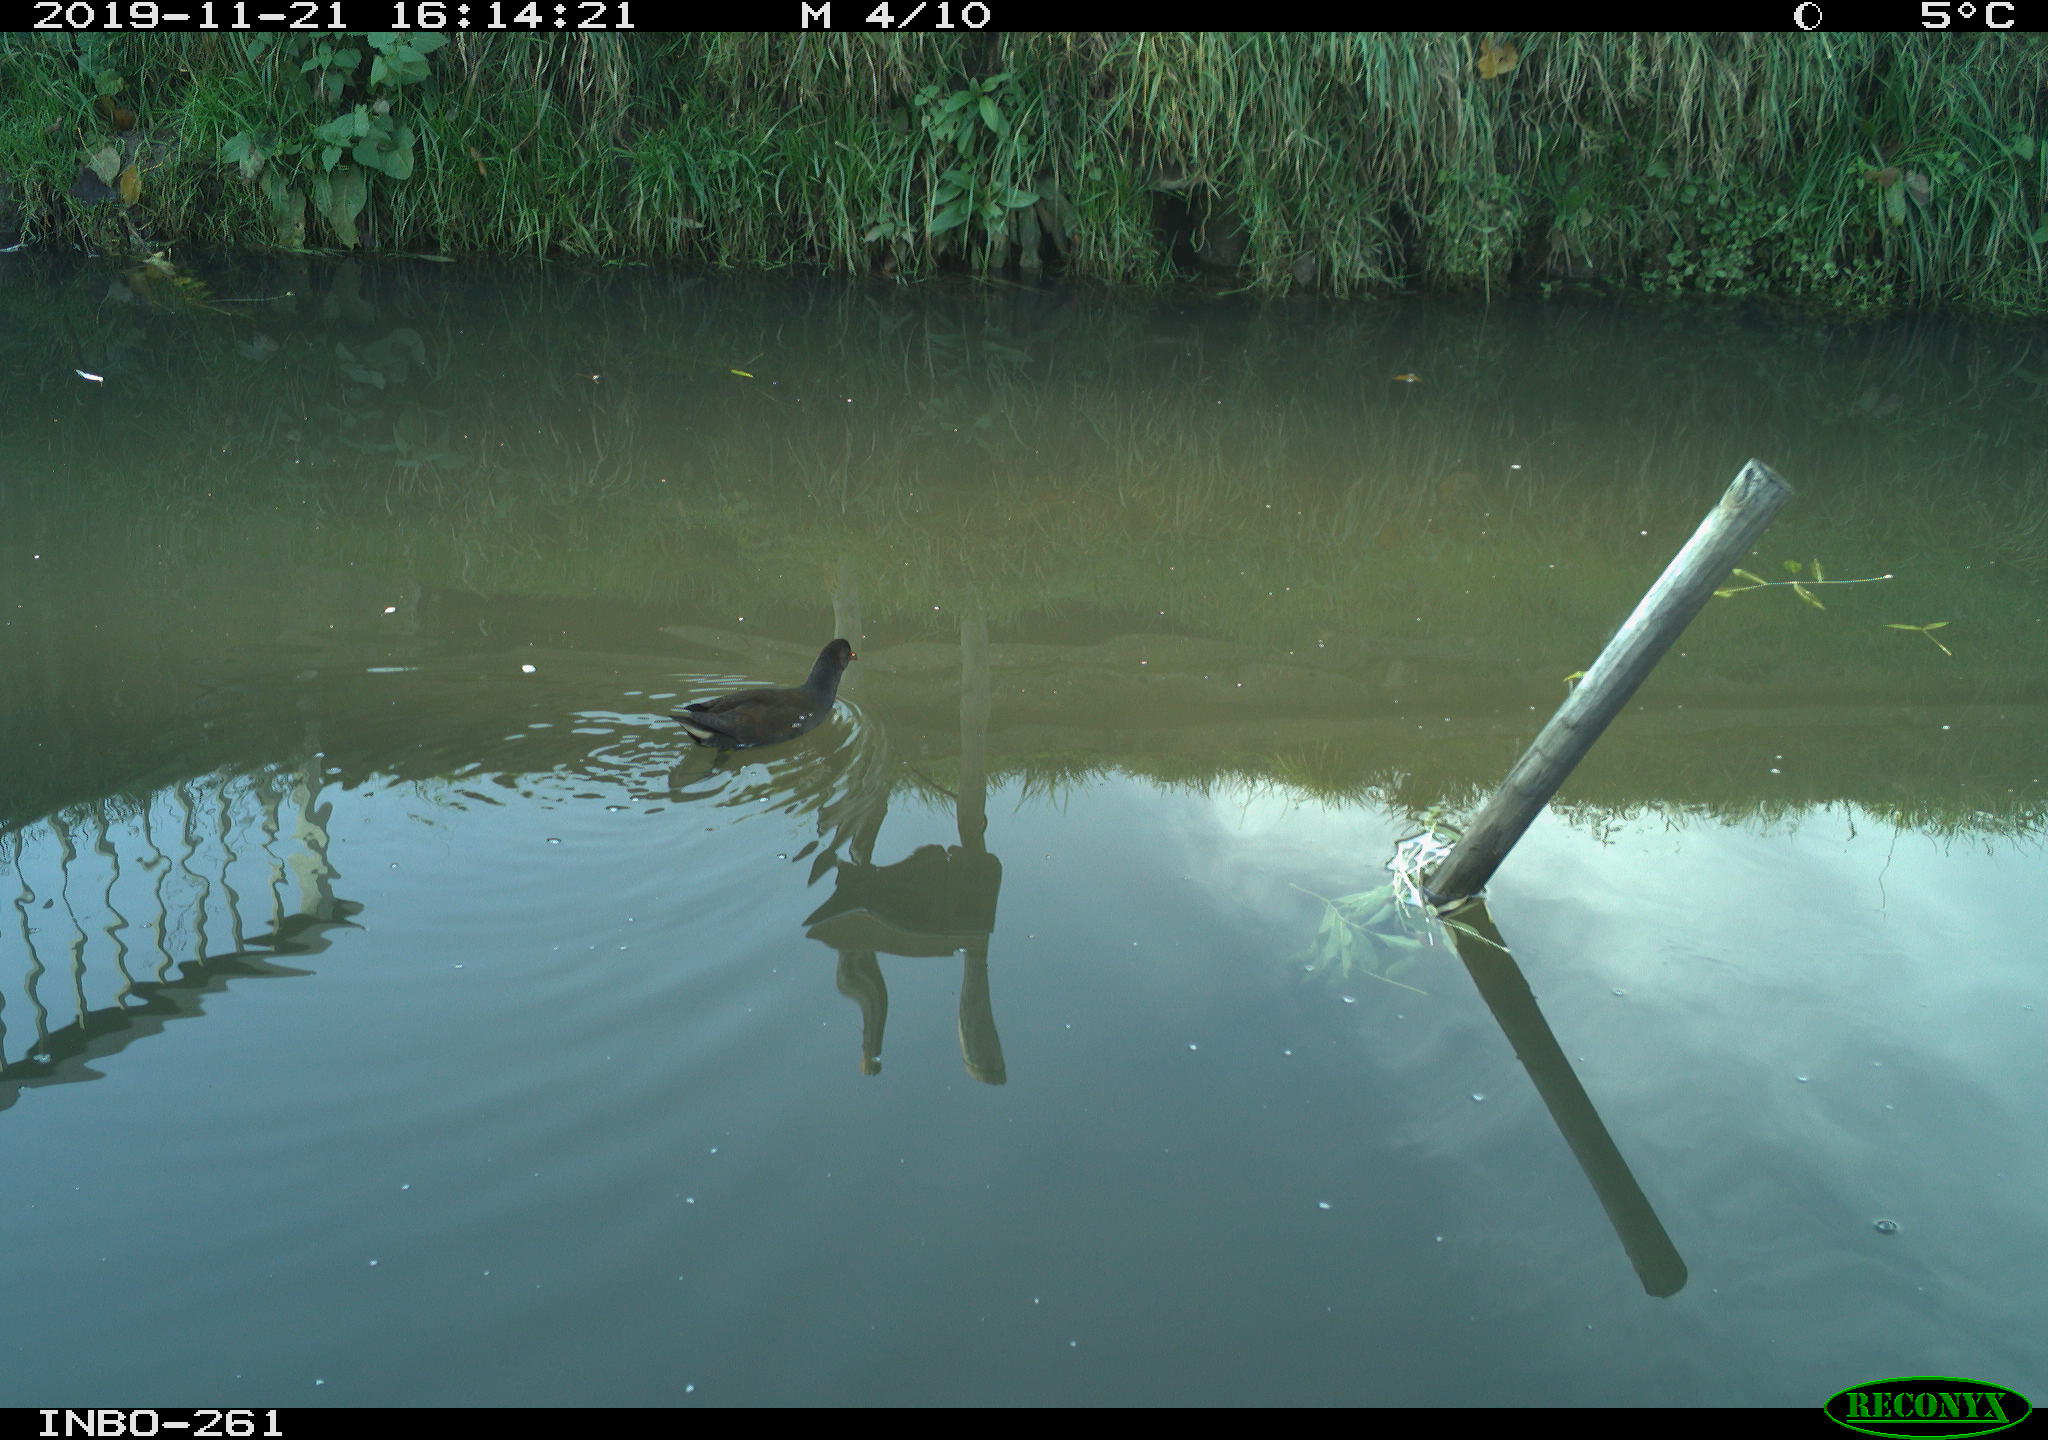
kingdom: Animalia
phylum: Chordata
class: Aves
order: Gruiformes
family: Rallidae
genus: Gallinula
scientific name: Gallinula chloropus
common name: Common moorhen
